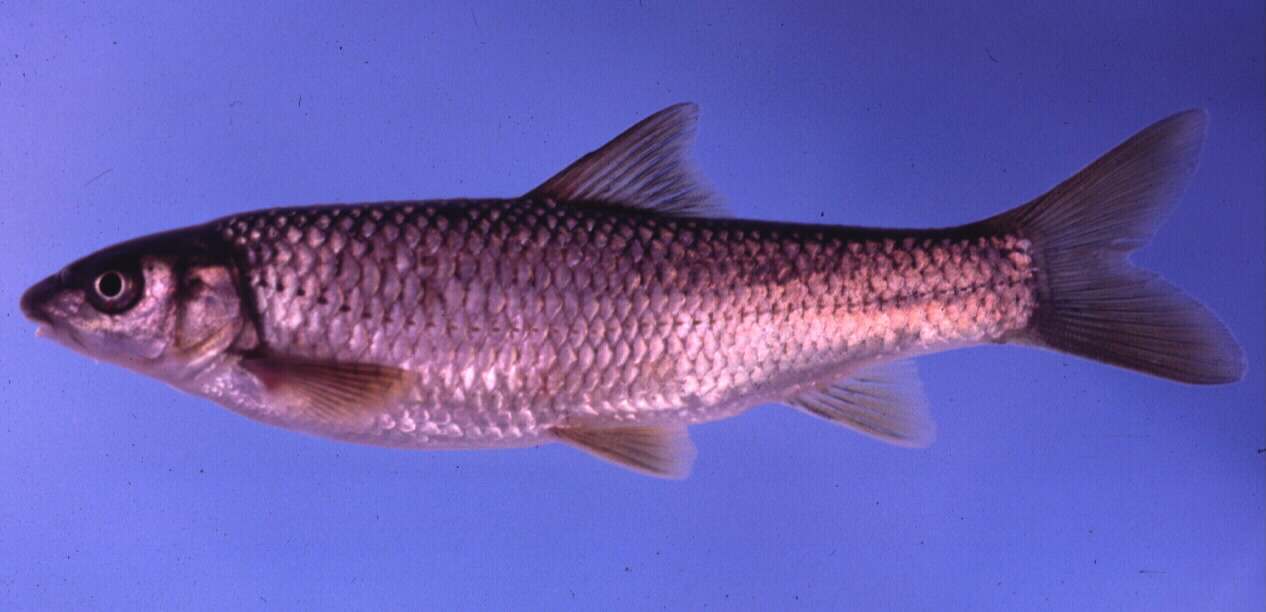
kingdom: Animalia
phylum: Chordata
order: Cypriniformes
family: Cyprinidae
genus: Labeobarbus
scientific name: Labeobarbus natalensis
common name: Scaly
